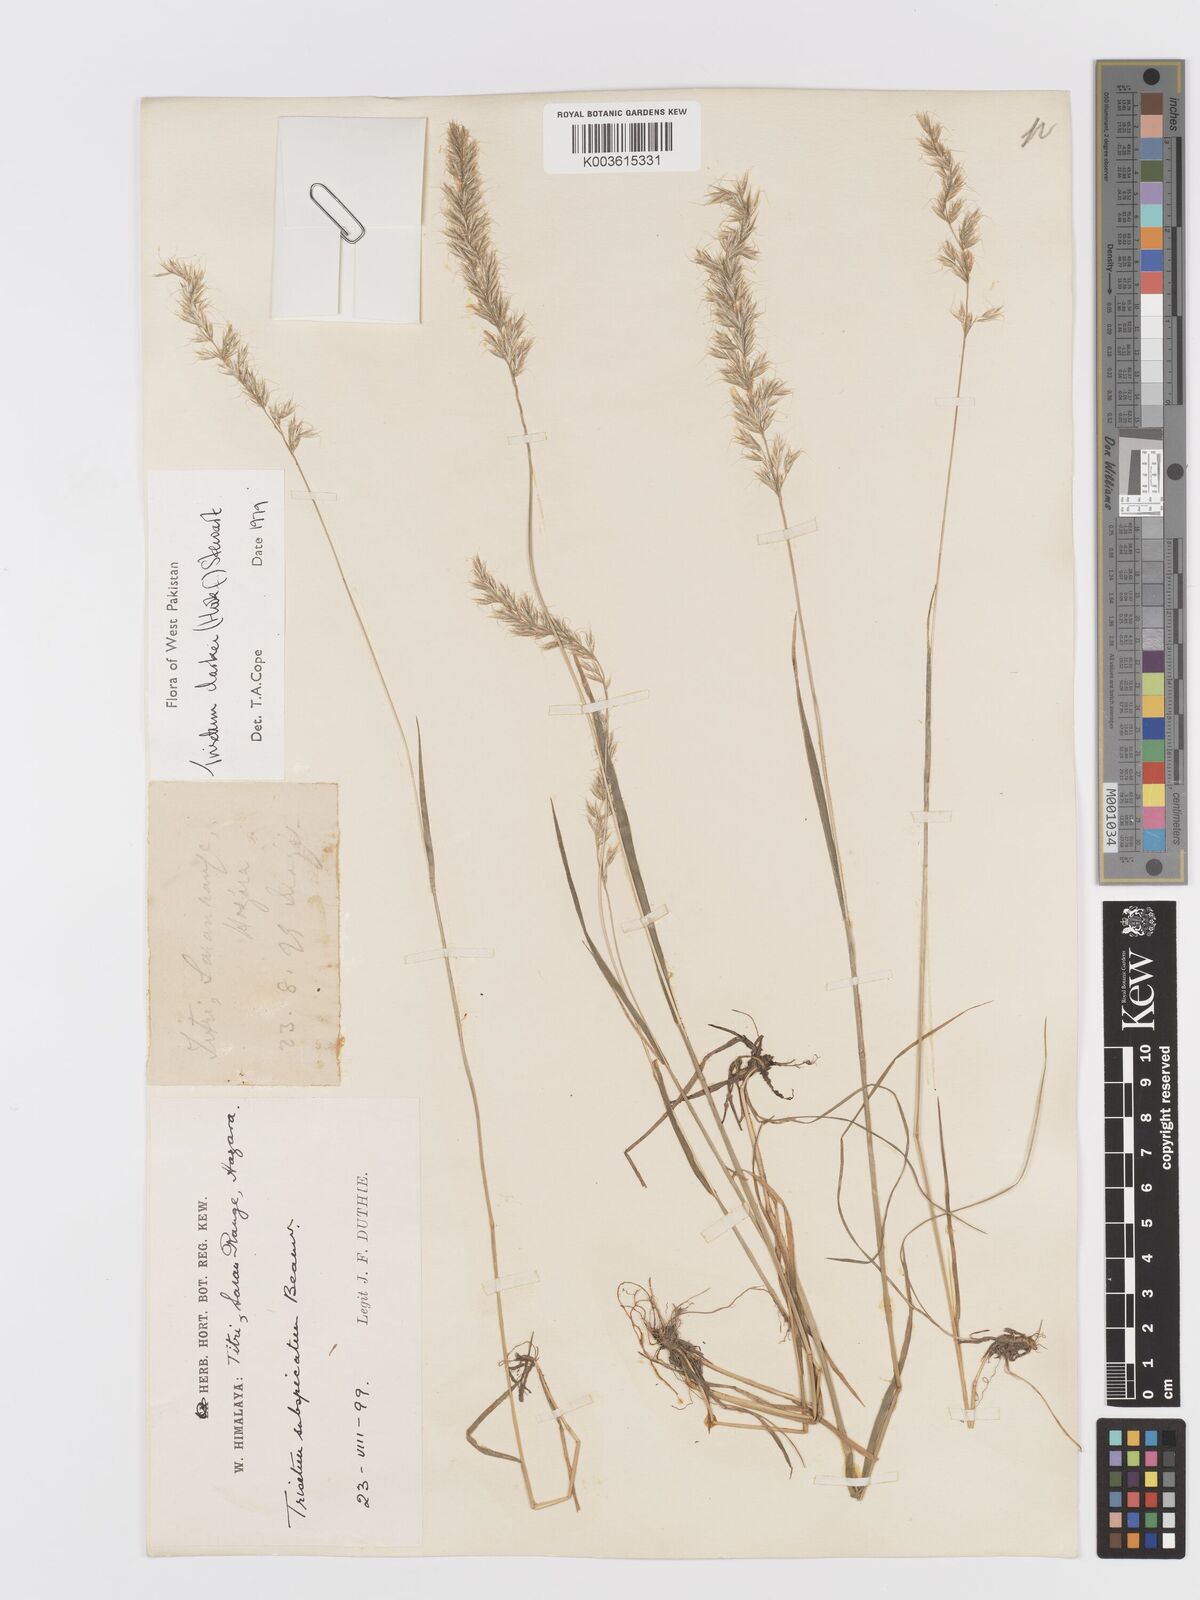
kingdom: Plantae
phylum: Tracheophyta
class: Liliopsida
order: Poales
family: Poaceae
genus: Trisetum
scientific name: Trisetum clarkei
